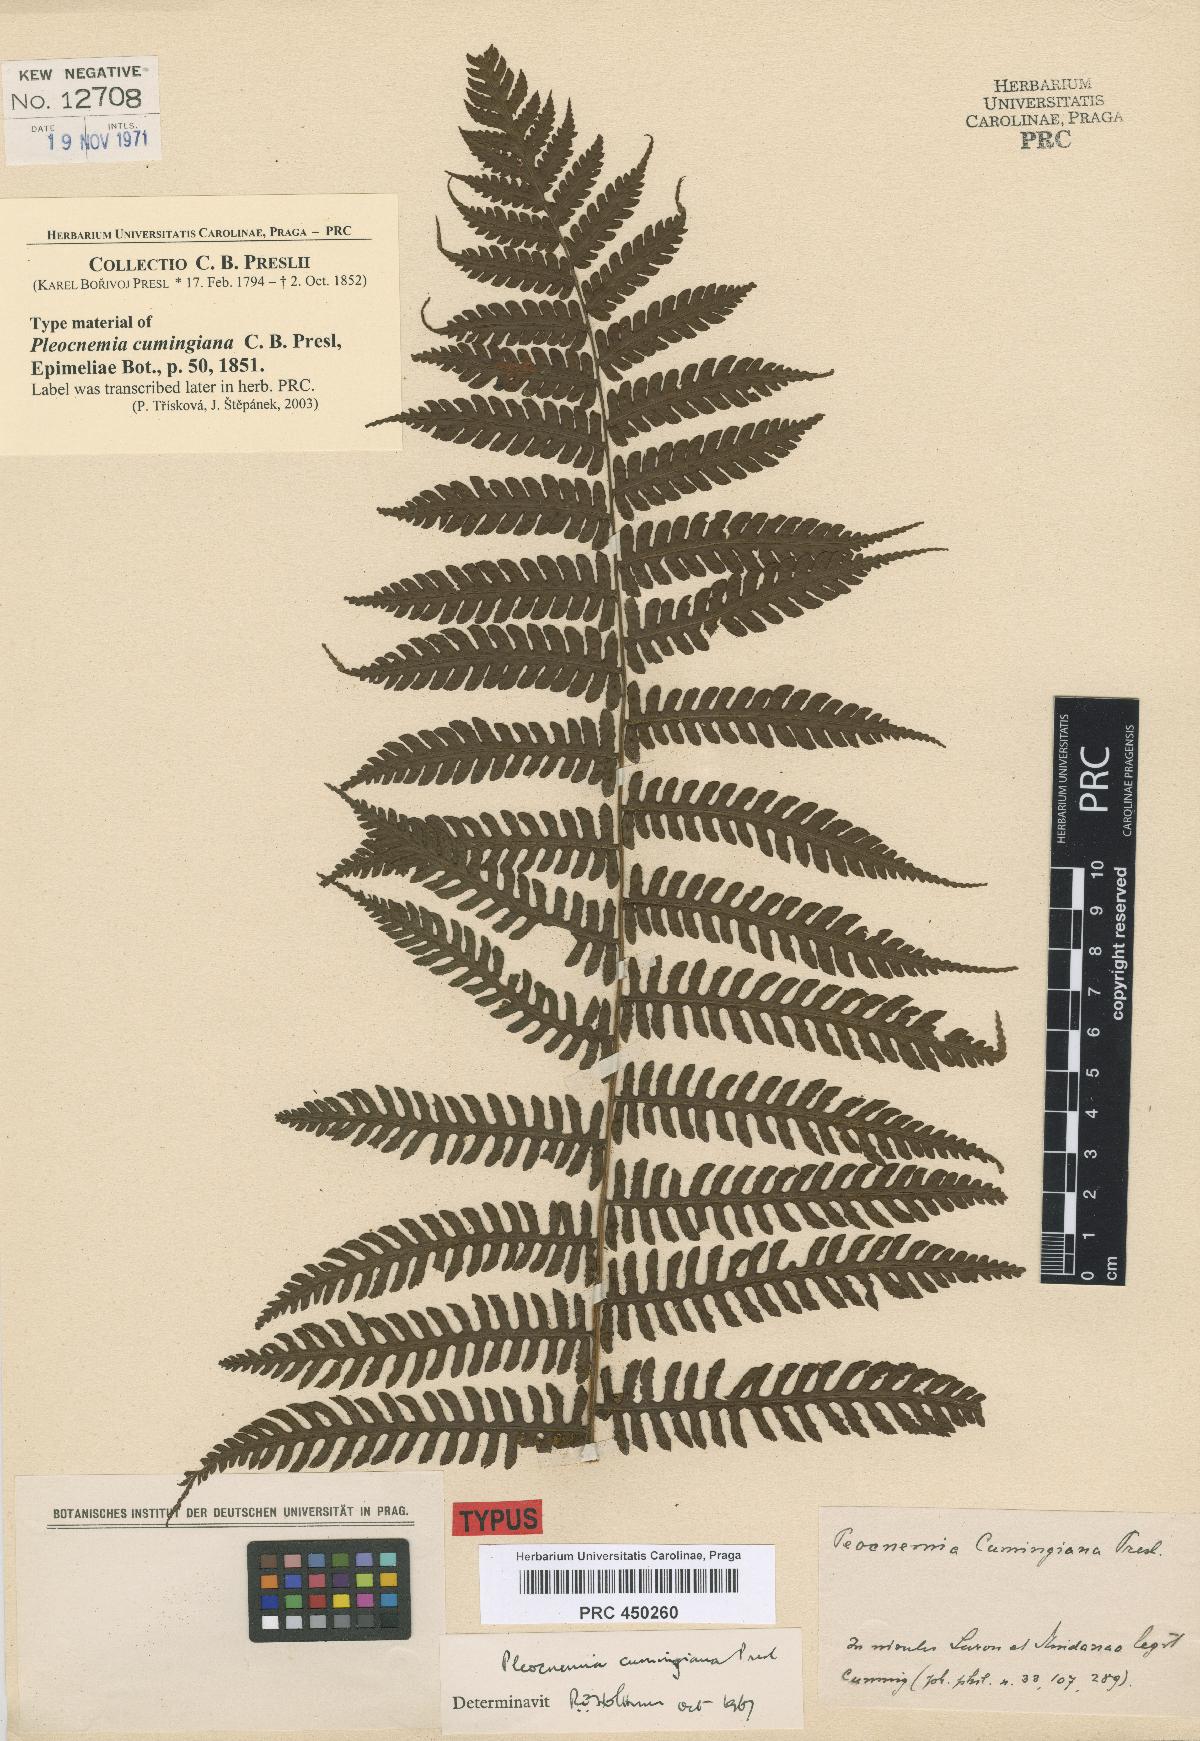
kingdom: Plantae
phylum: Tracheophyta
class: Polypodiopsida
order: Polypodiales
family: Dryopteridaceae
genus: Pleocnemia
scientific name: Pleocnemia cumingiana
